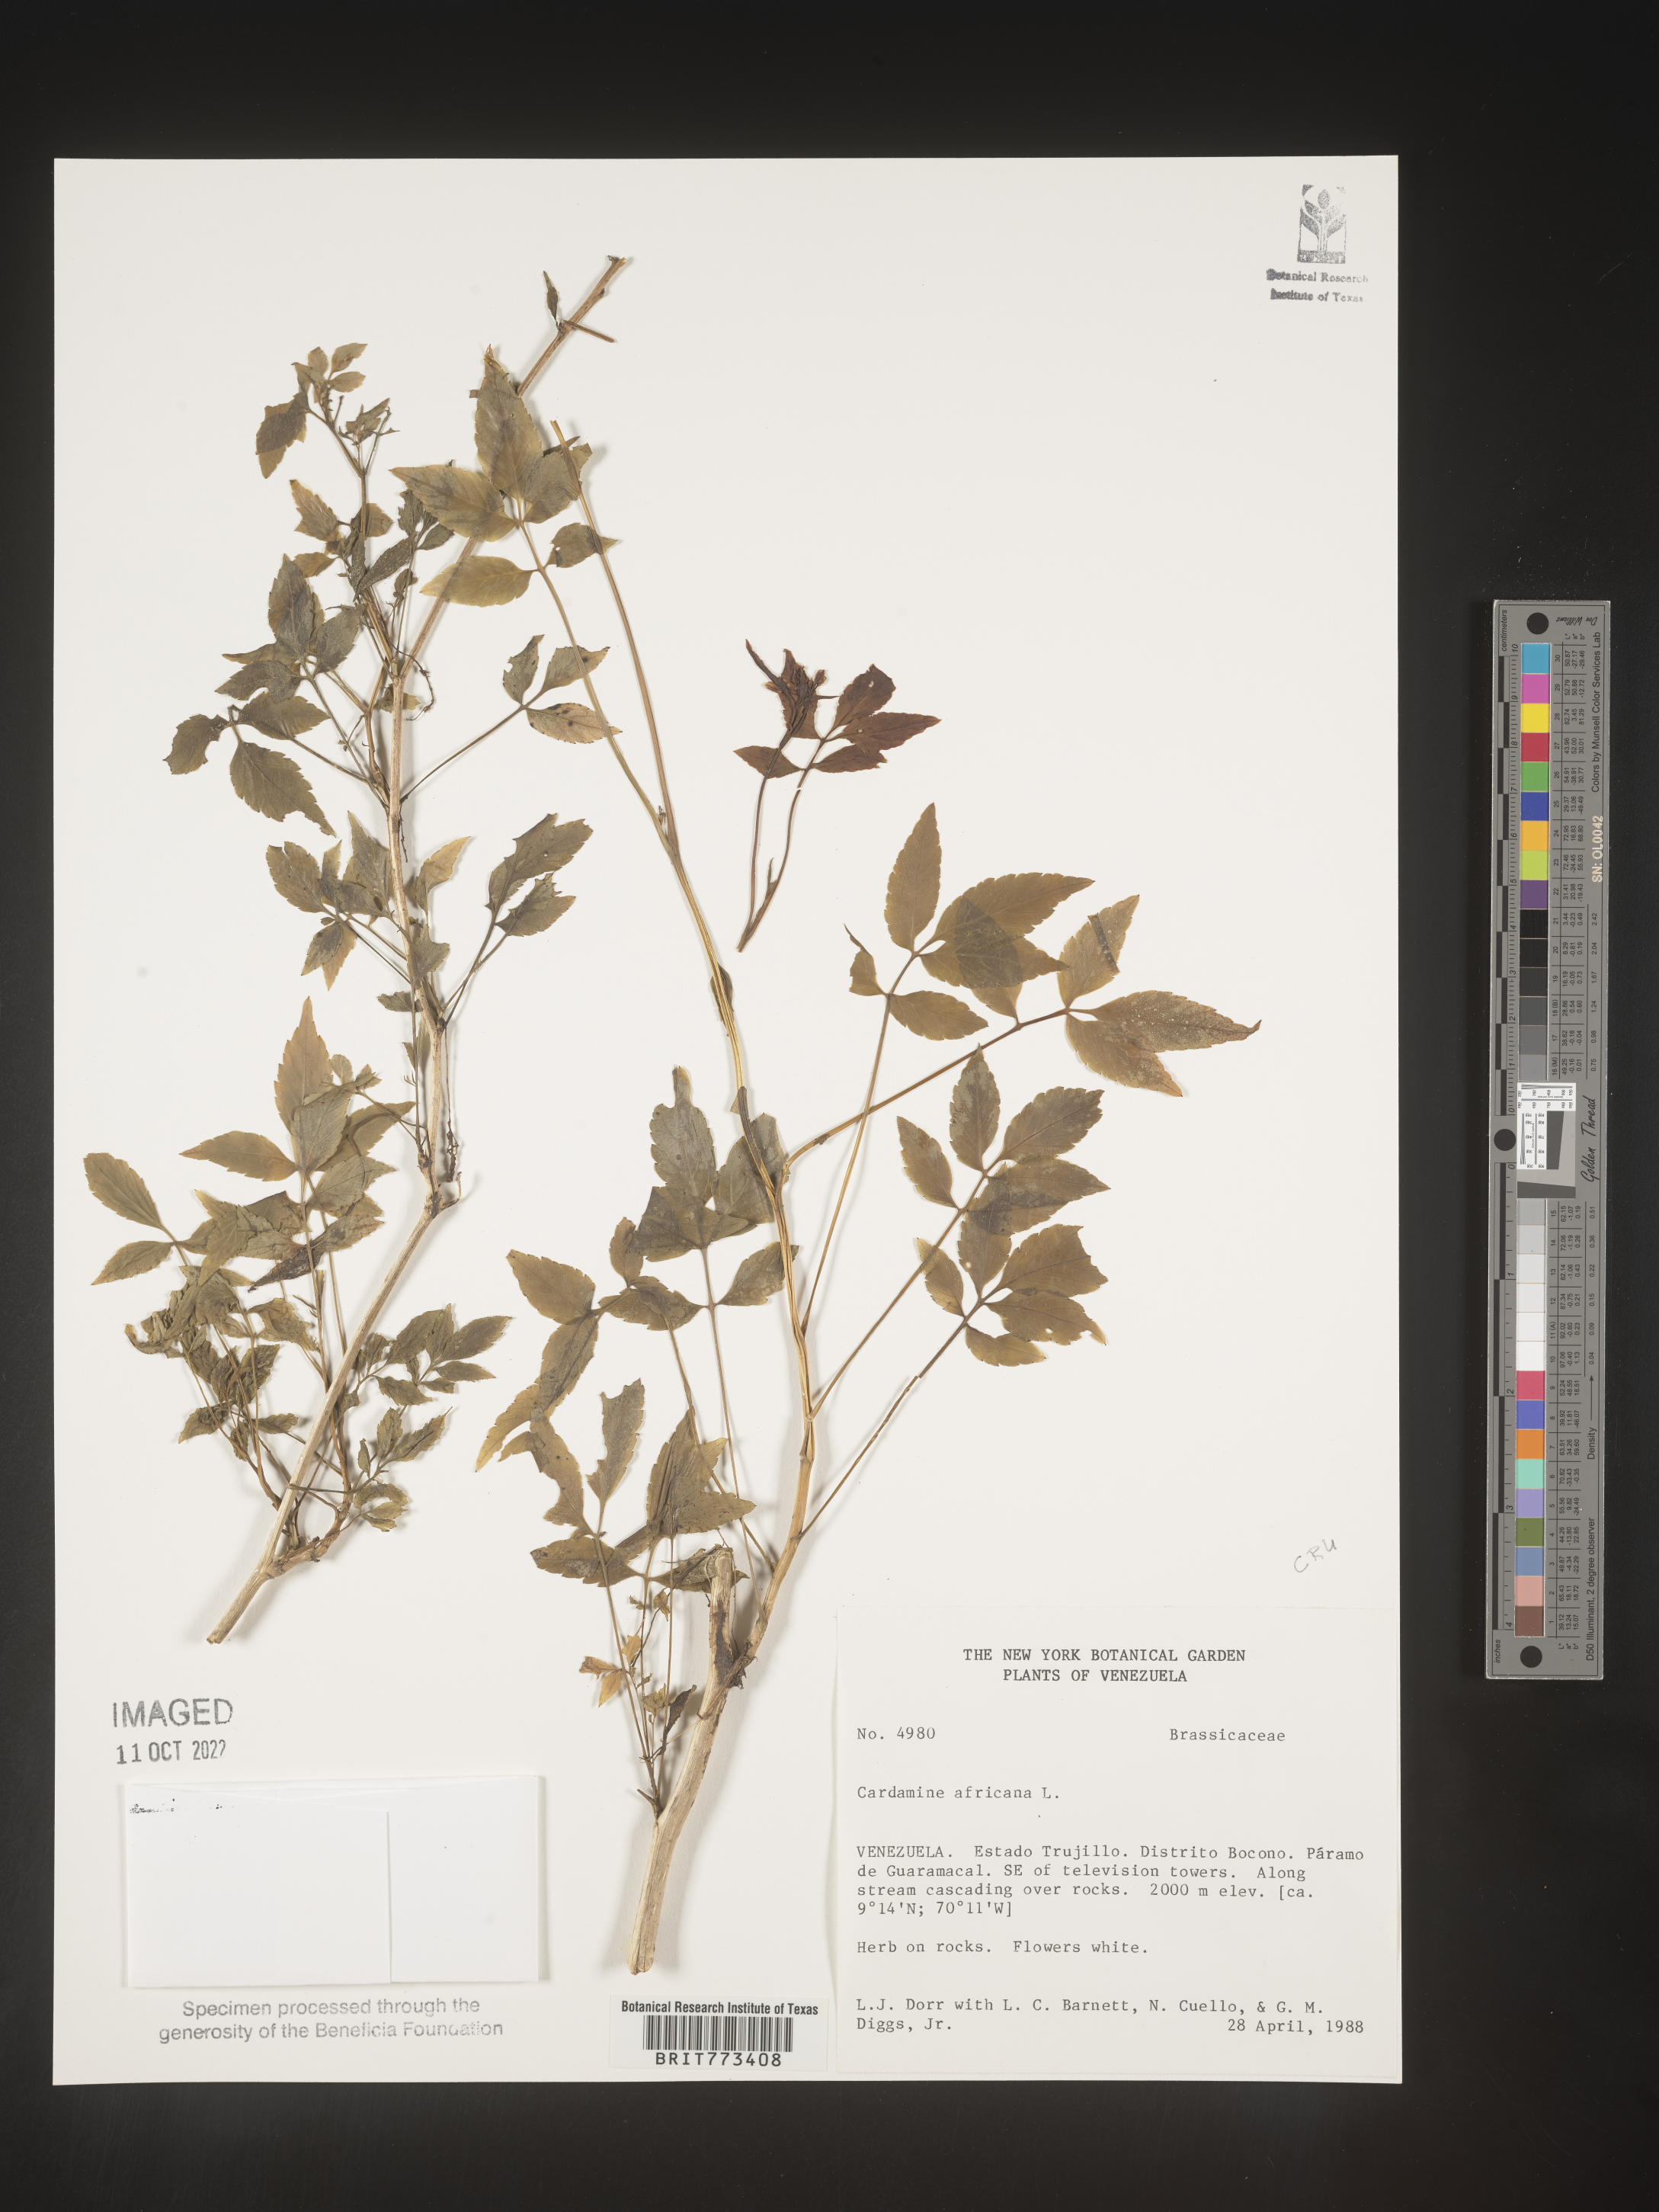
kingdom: Plantae
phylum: Tracheophyta
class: Magnoliopsida
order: Brassicales
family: Brassicaceae
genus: Cardamine
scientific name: Cardamine
